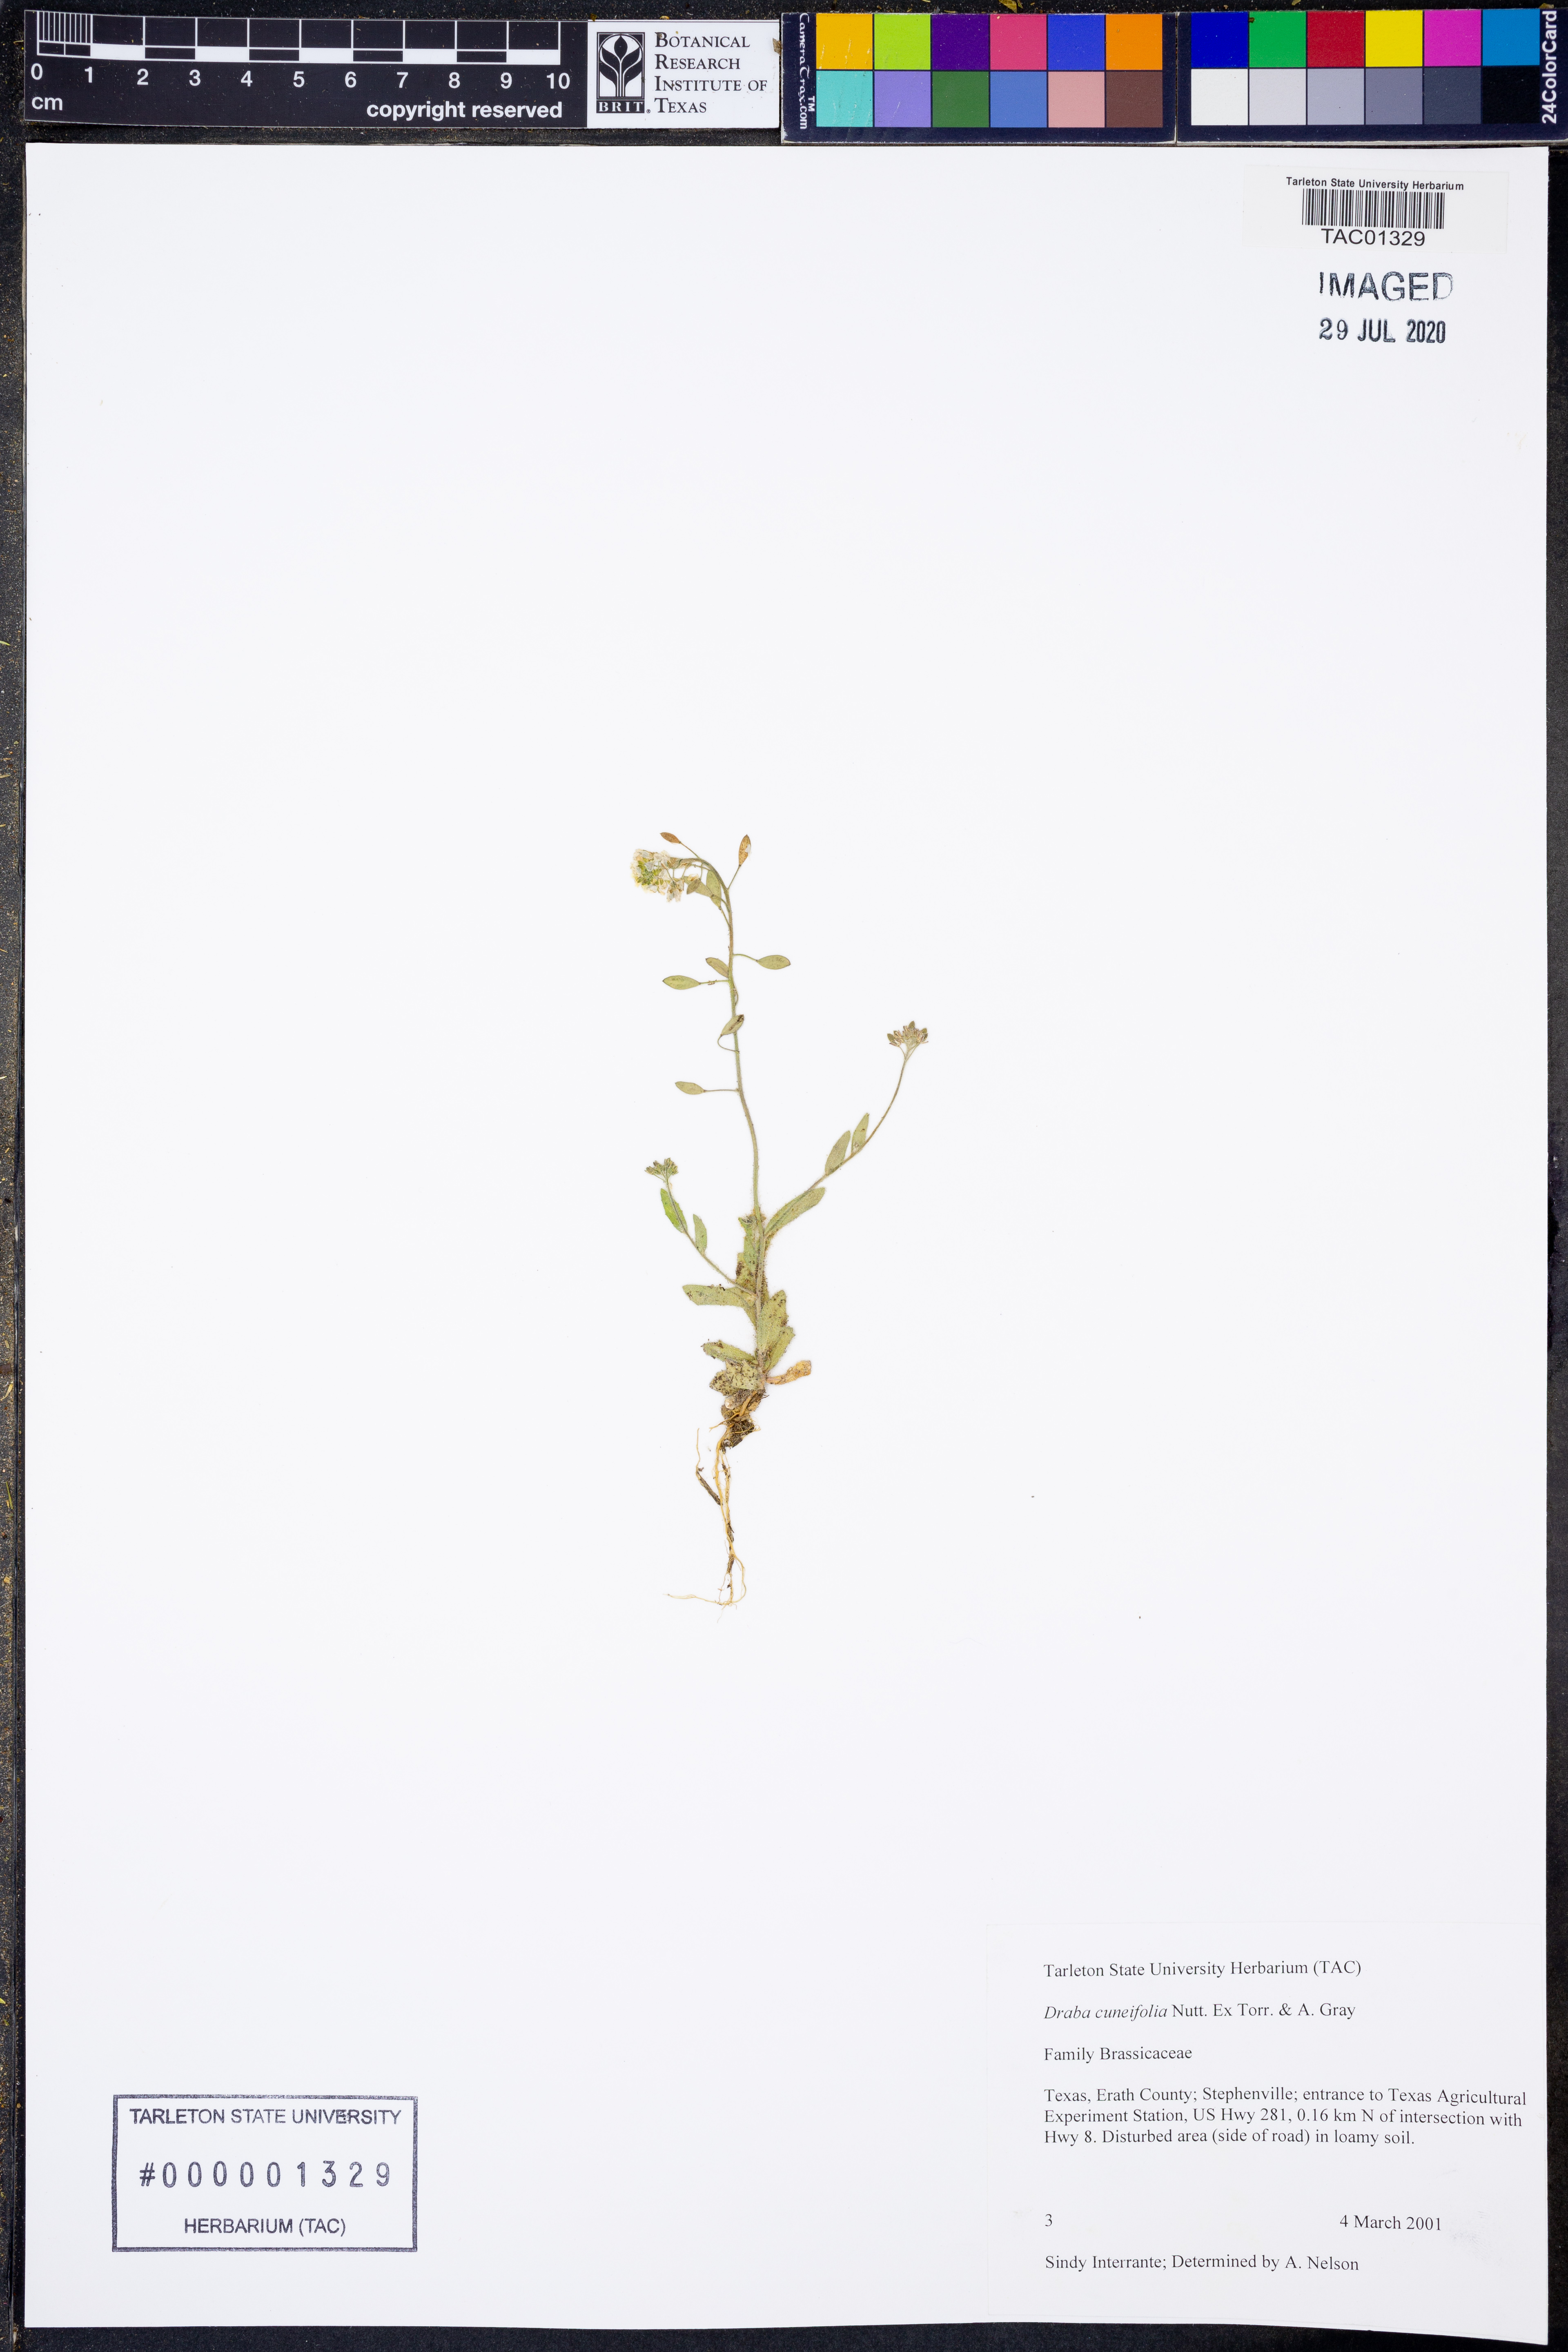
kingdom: Plantae
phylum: Tracheophyta
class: Magnoliopsida
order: Brassicales
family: Brassicaceae
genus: Tomostima
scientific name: Tomostima cuneifolia
